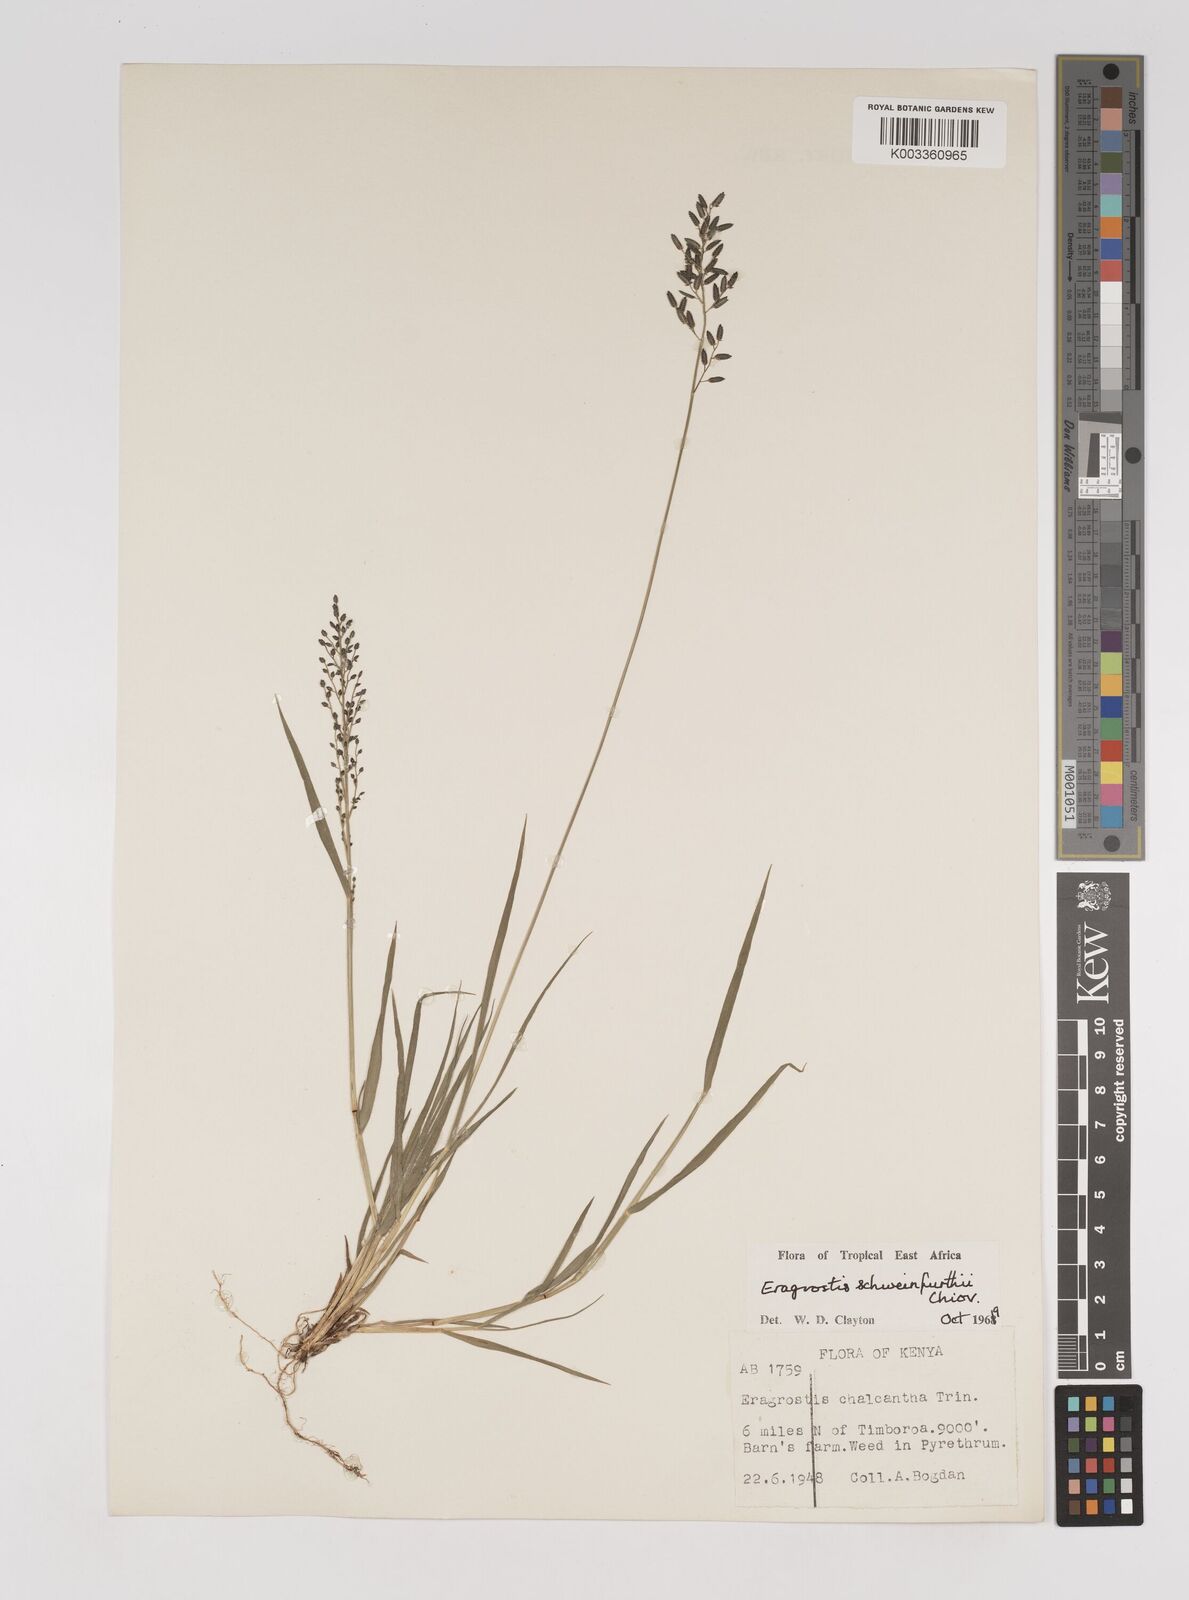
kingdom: Plantae
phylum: Tracheophyta
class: Liliopsida
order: Poales
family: Poaceae
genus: Eragrostis
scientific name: Eragrostis schweinfurthii
